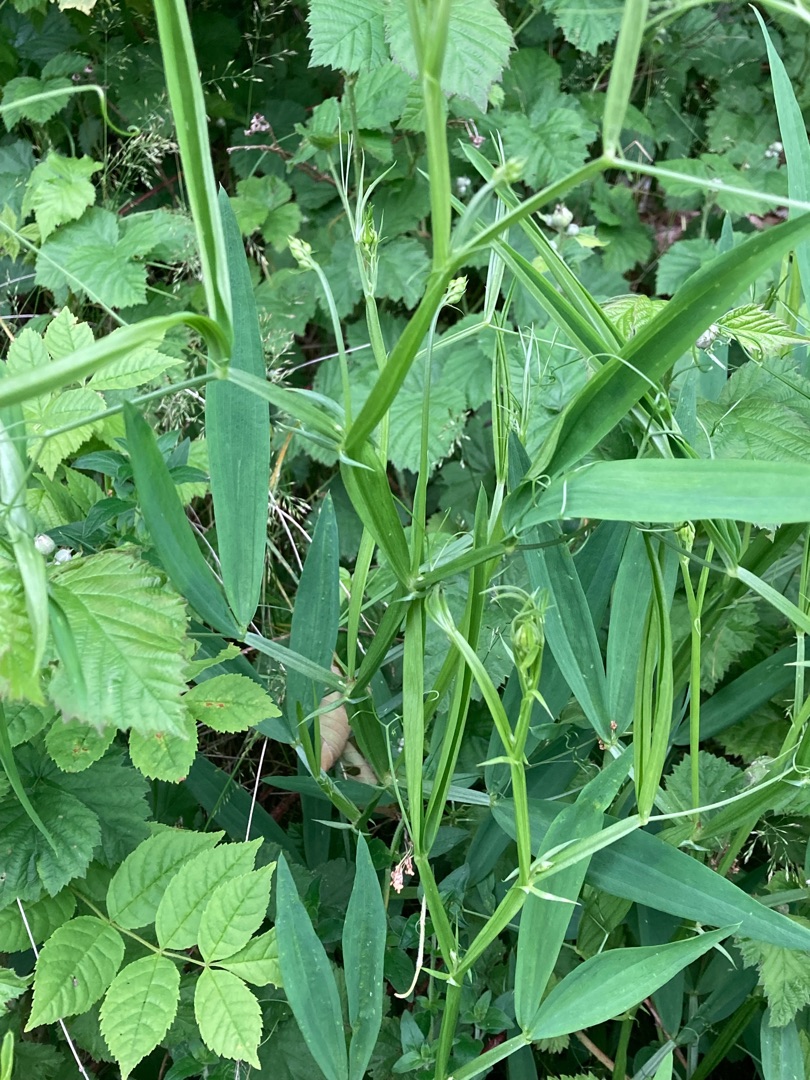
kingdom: Plantae
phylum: Tracheophyta
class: Magnoliopsida
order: Fabales
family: Fabaceae
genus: Lathyrus
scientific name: Lathyrus sylvestris
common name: Skov-fladbælg
